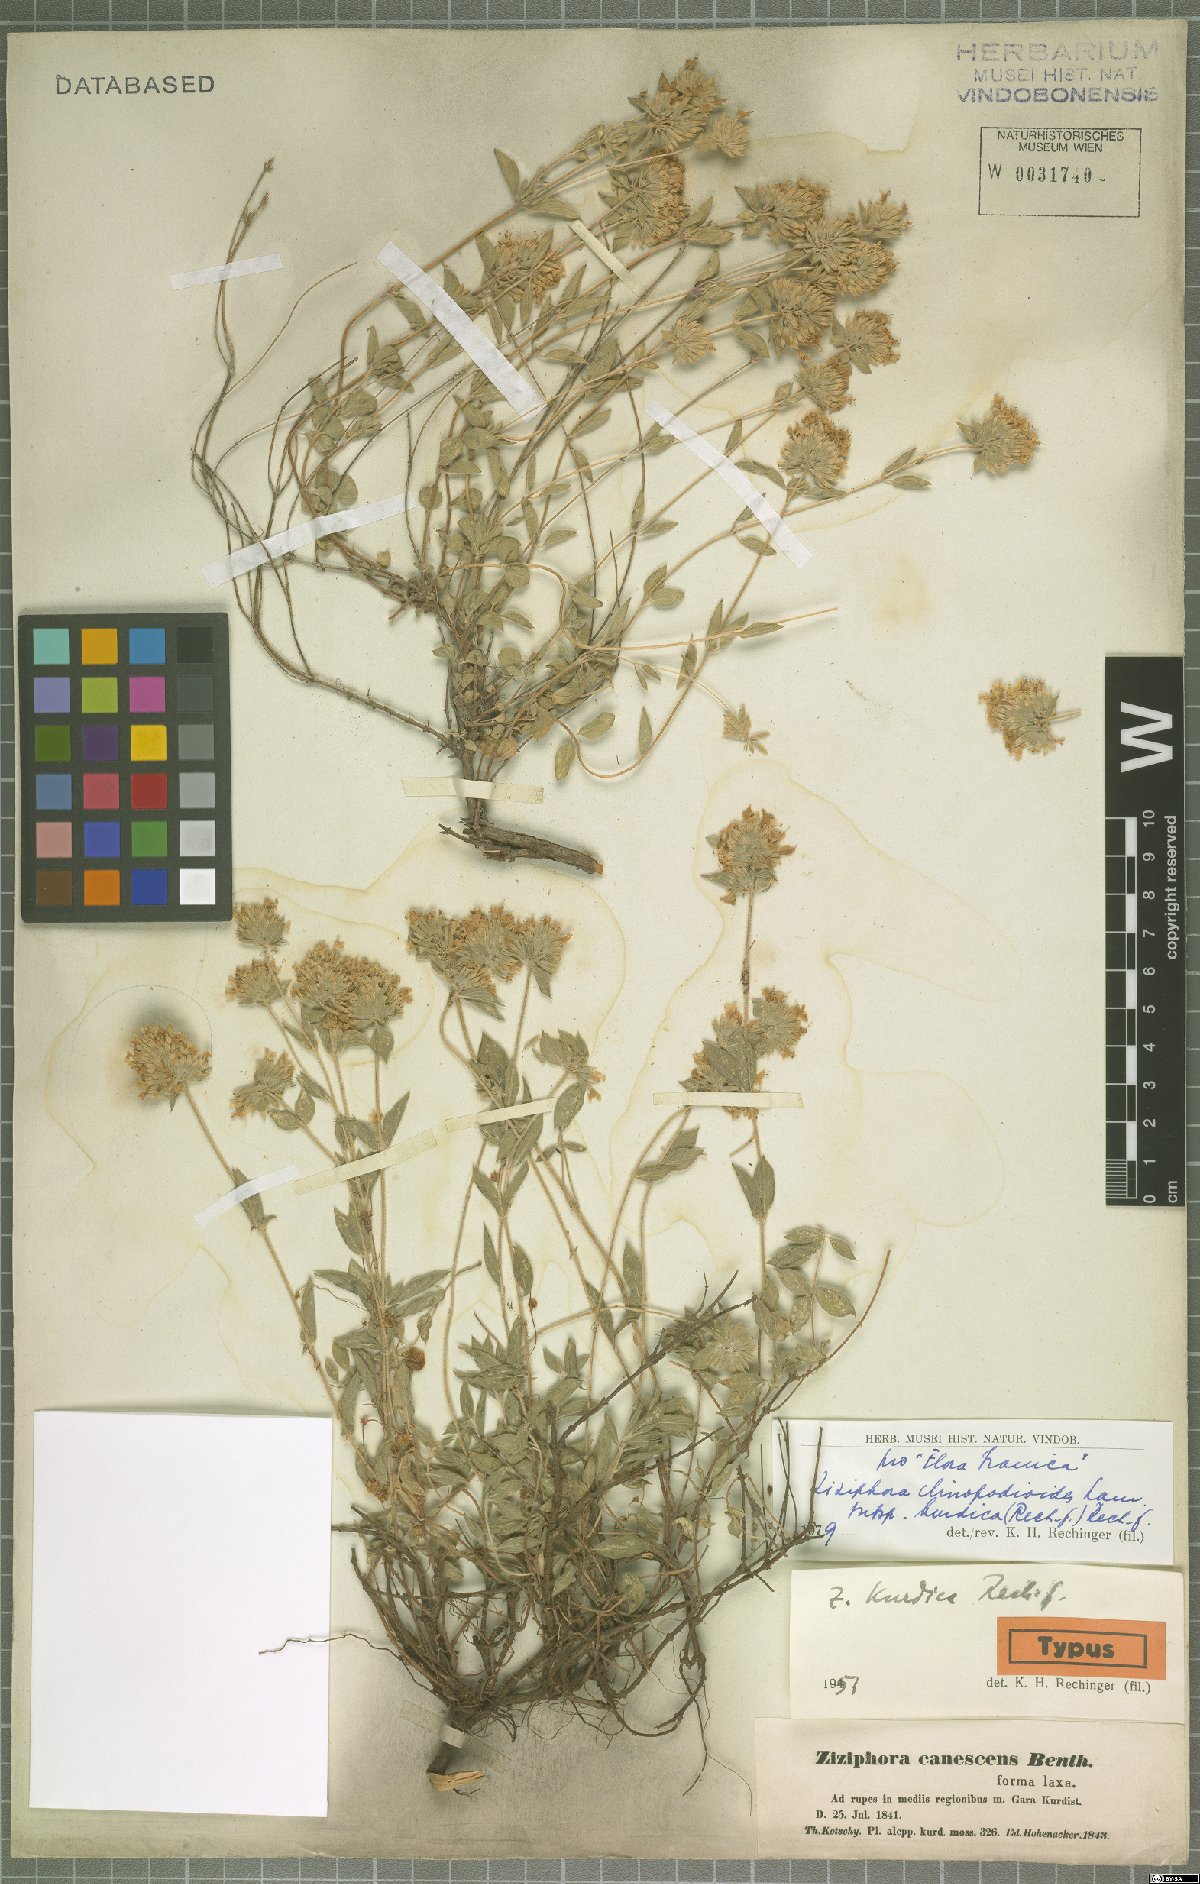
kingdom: Plantae
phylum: Tracheophyta
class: Magnoliopsida
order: Lamiales
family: Lamiaceae
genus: Ziziphora
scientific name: Ziziphora clinopodioides
